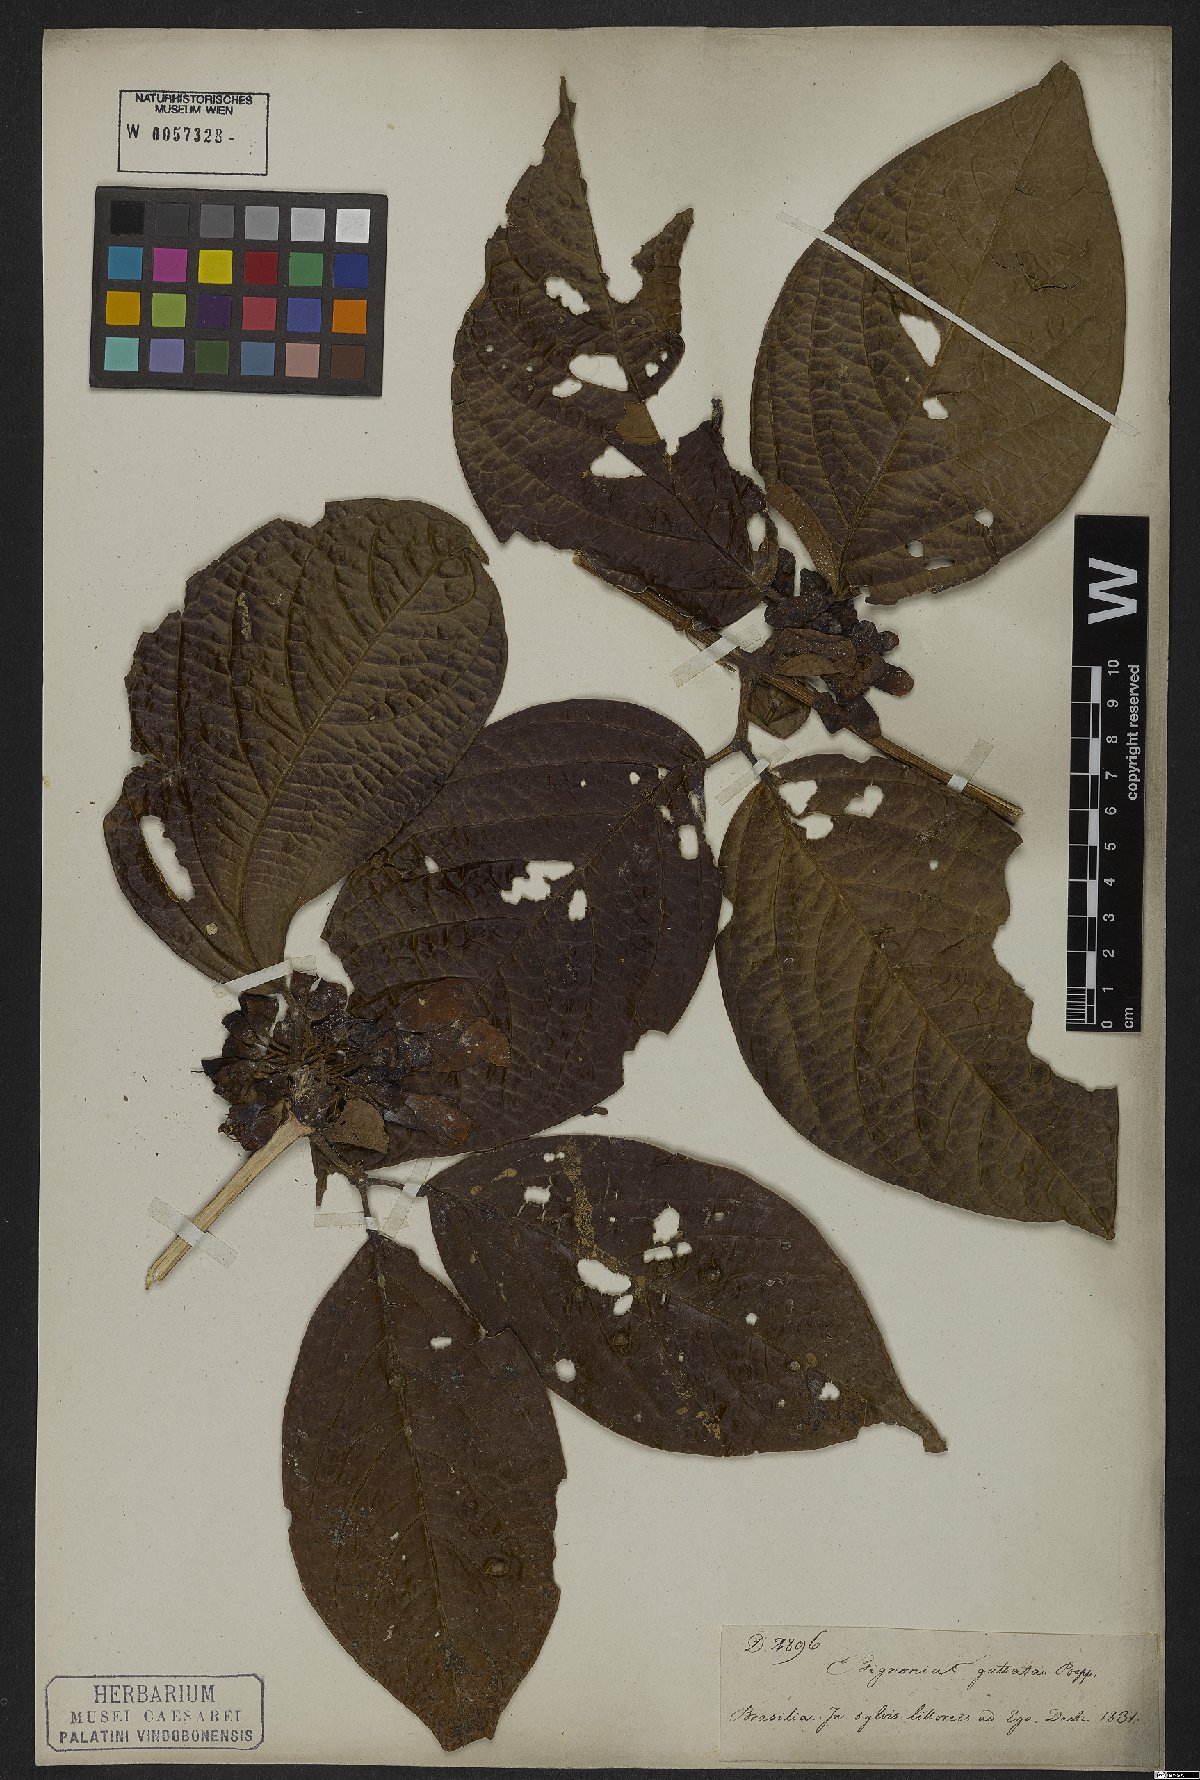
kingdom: Plantae
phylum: Tracheophyta
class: Magnoliopsida
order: Lamiales
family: Bignoniaceae
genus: Anemopaegma
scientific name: Anemopaegma paraense
